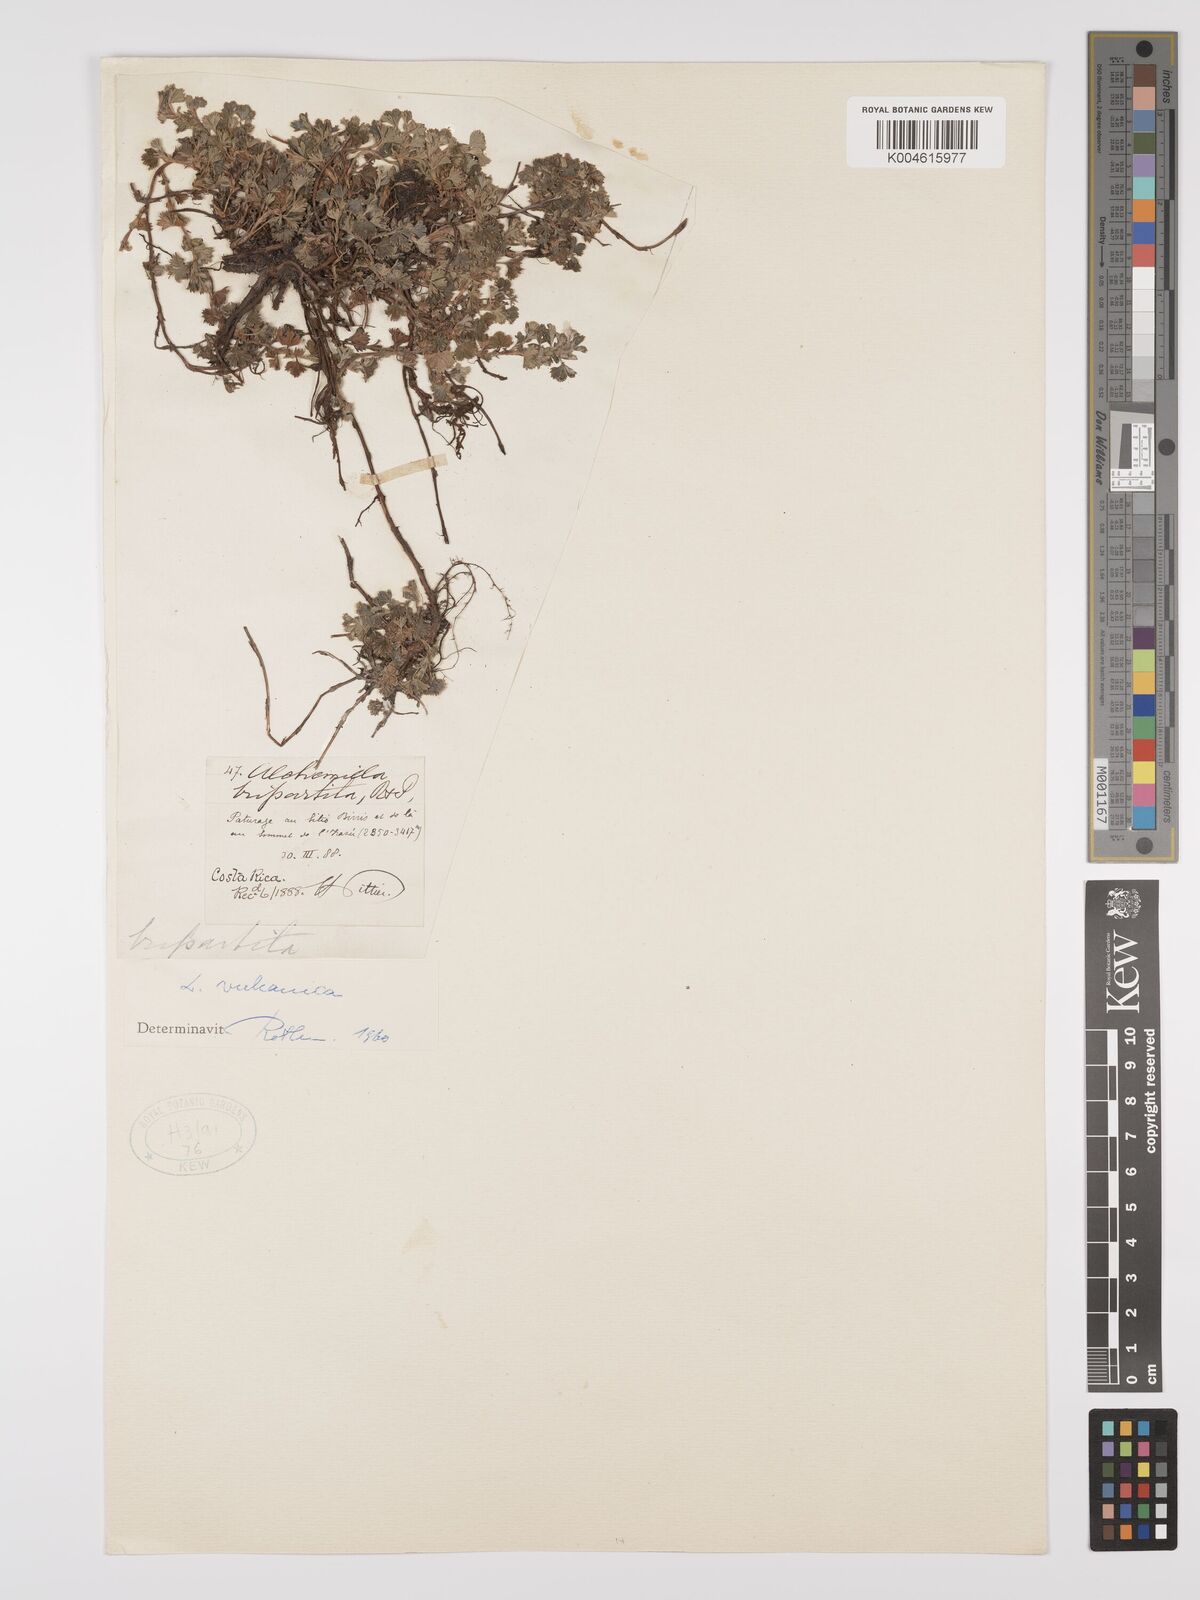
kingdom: Plantae
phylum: Tracheophyta
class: Magnoliopsida
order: Rosales
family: Rosaceae
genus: Alchemilla
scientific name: Alchemilla
